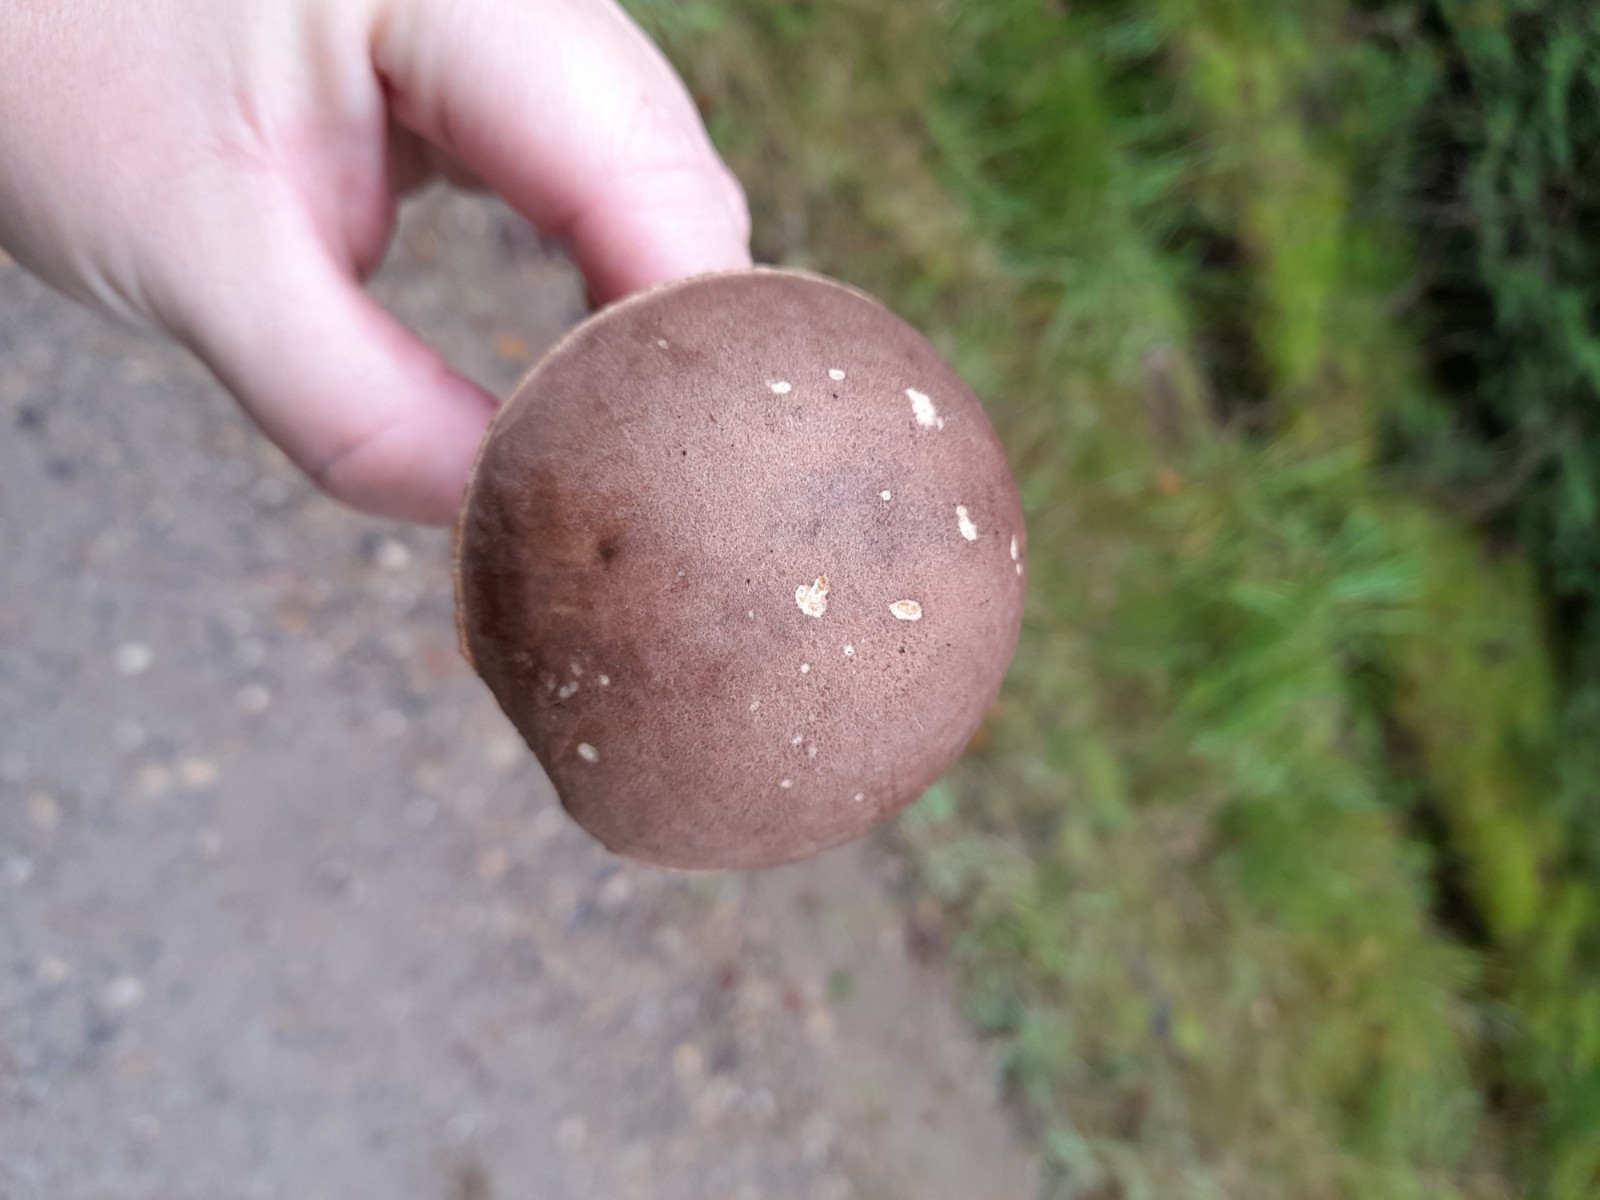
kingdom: Fungi
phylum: Basidiomycota
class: Agaricomycetes
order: Boletales
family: Boletaceae
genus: Leccinum
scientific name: Leccinum
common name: skælrørhat
